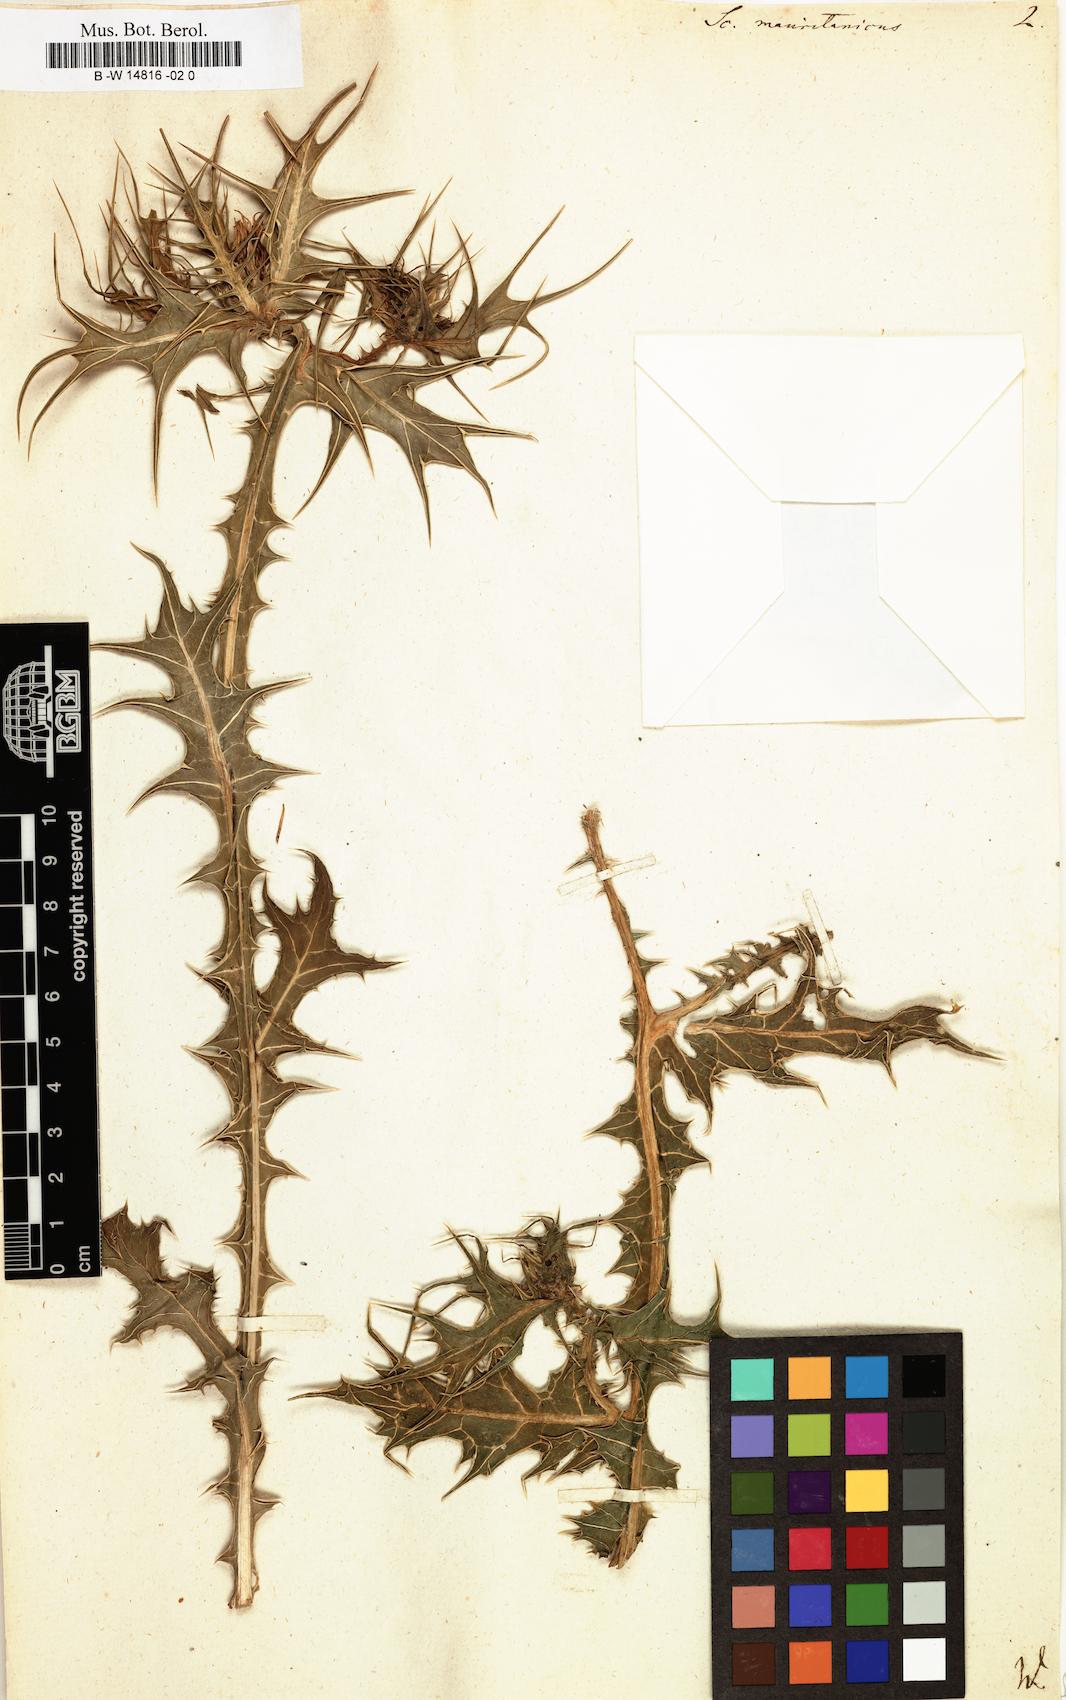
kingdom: Plantae
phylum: Tracheophyta
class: Magnoliopsida
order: Asterales
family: Asteraceae
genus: Scolymus
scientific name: Scolymus maculatus
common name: Spotted thistle
